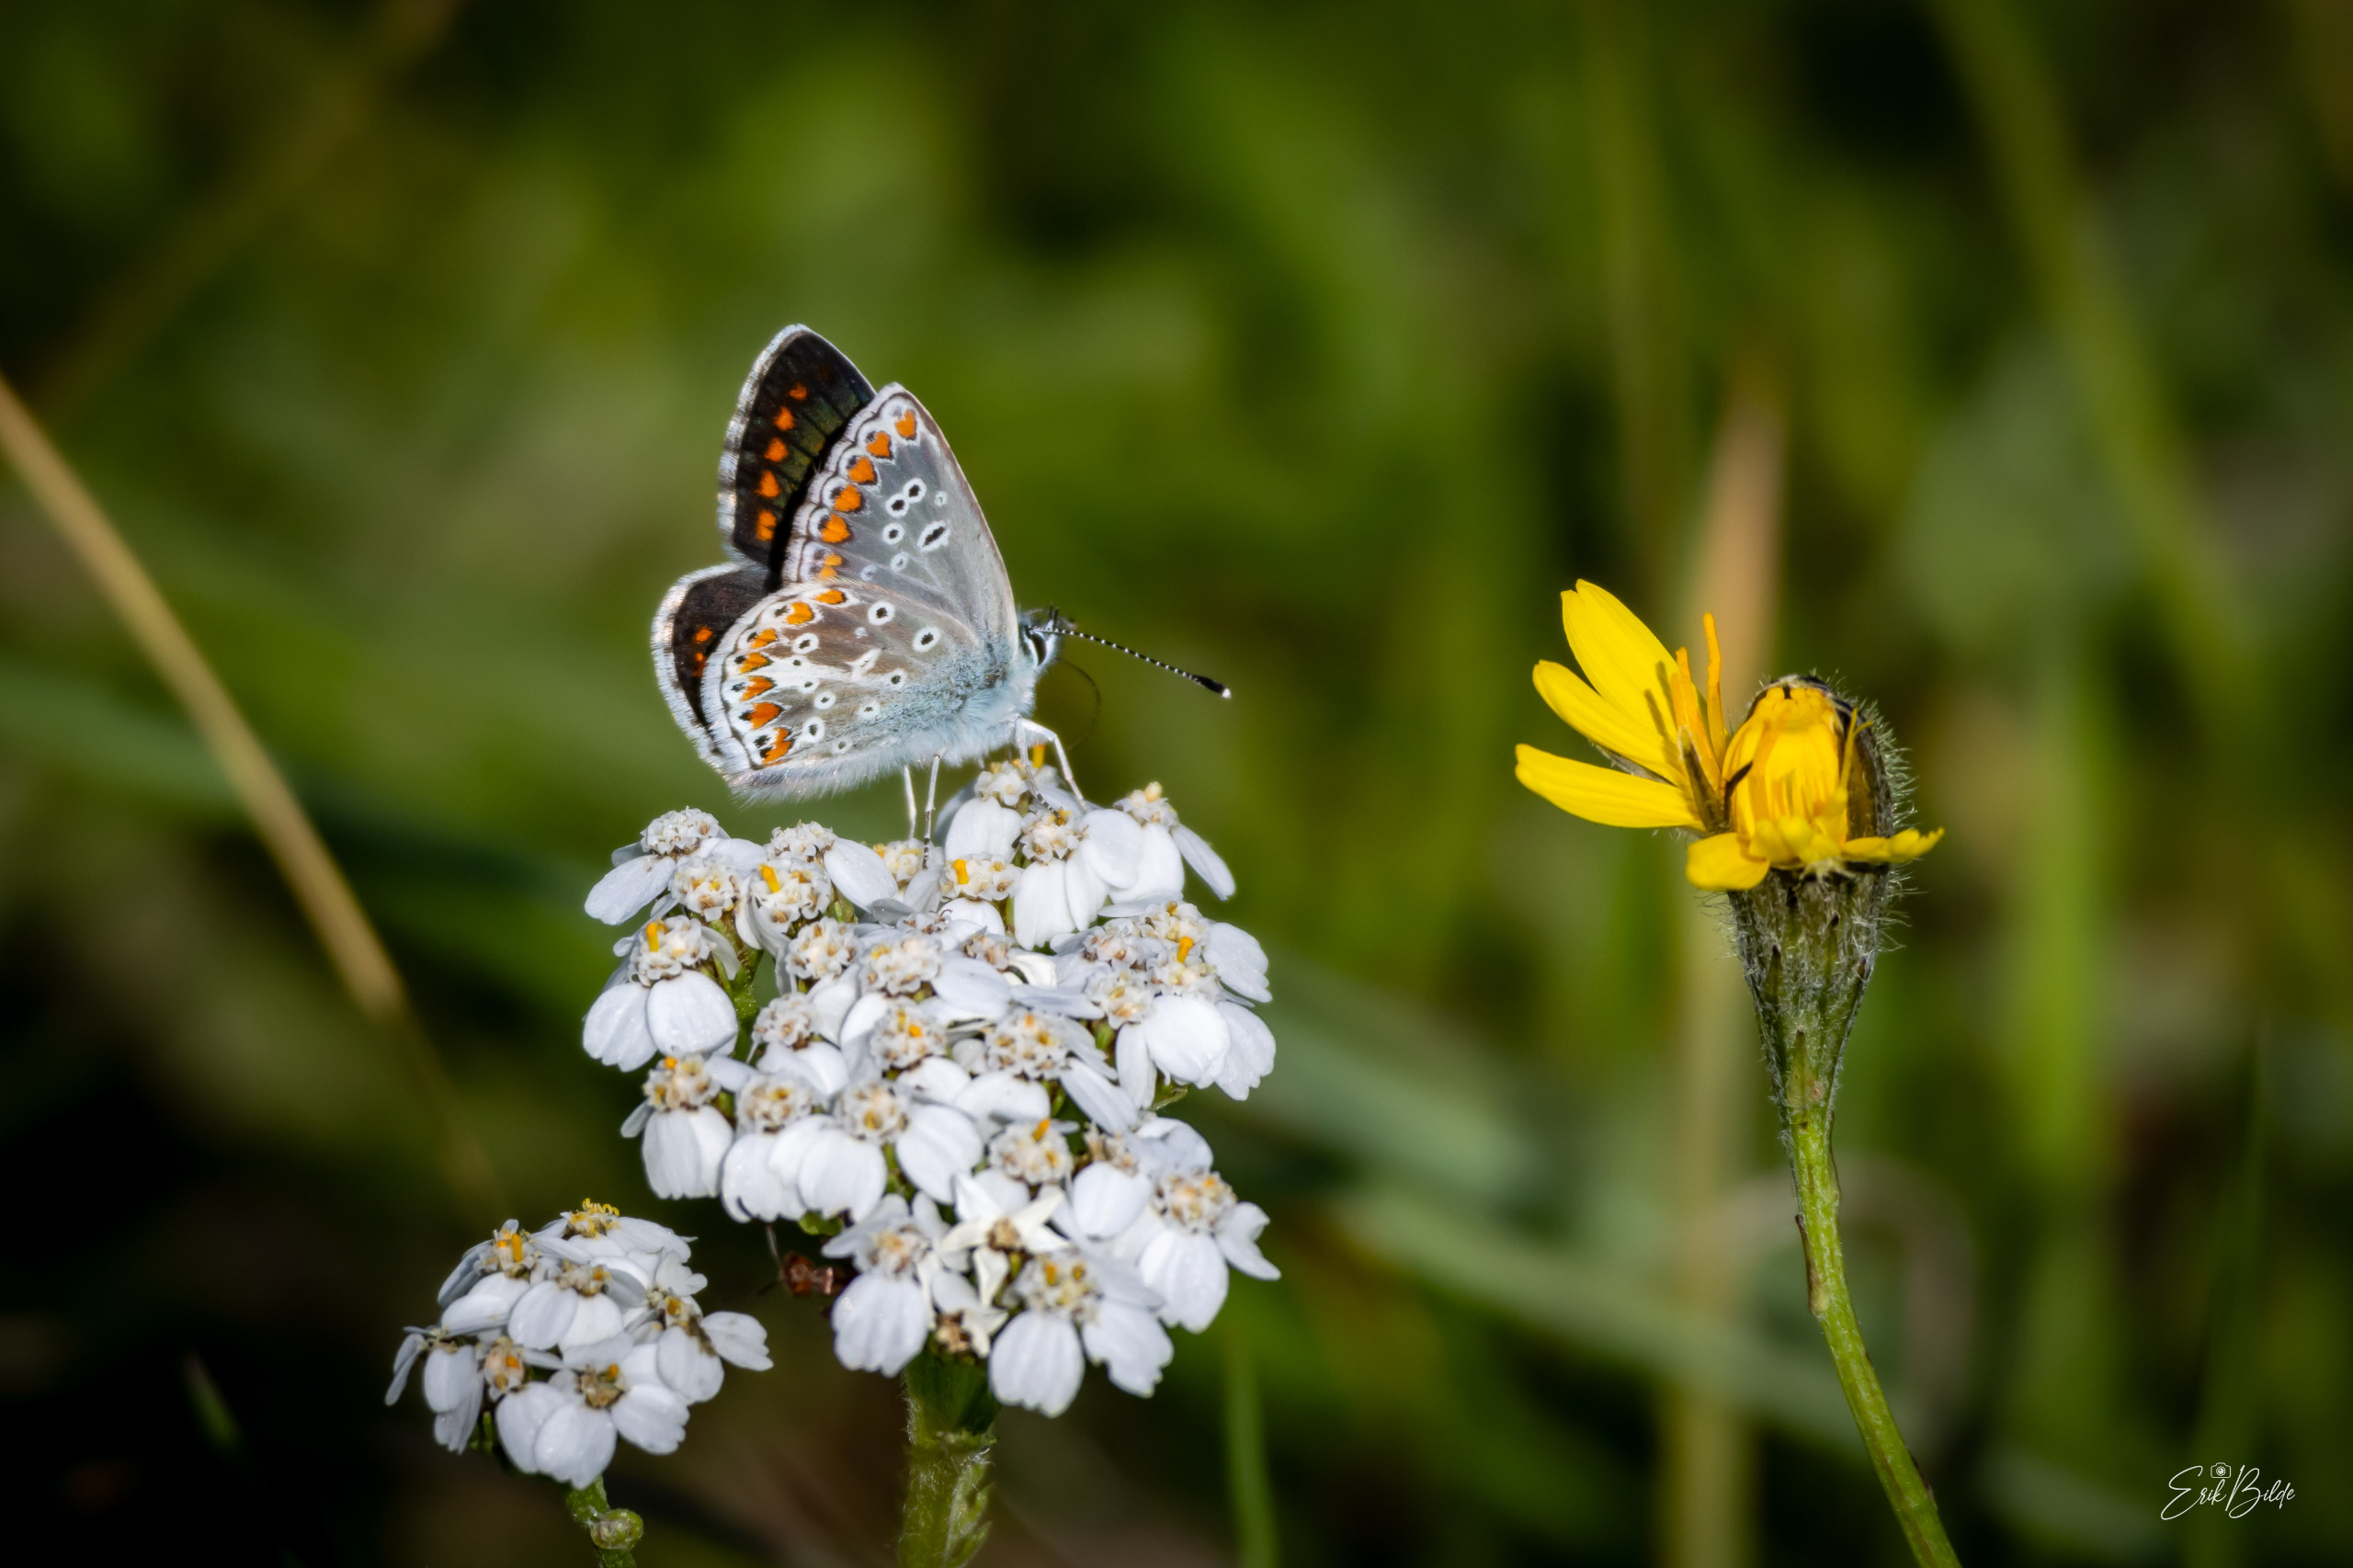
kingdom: Animalia
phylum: Arthropoda
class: Insecta
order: Lepidoptera
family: Lycaenidae
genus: Aricia
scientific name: Aricia agestis
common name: Rødplettet blåfugl
